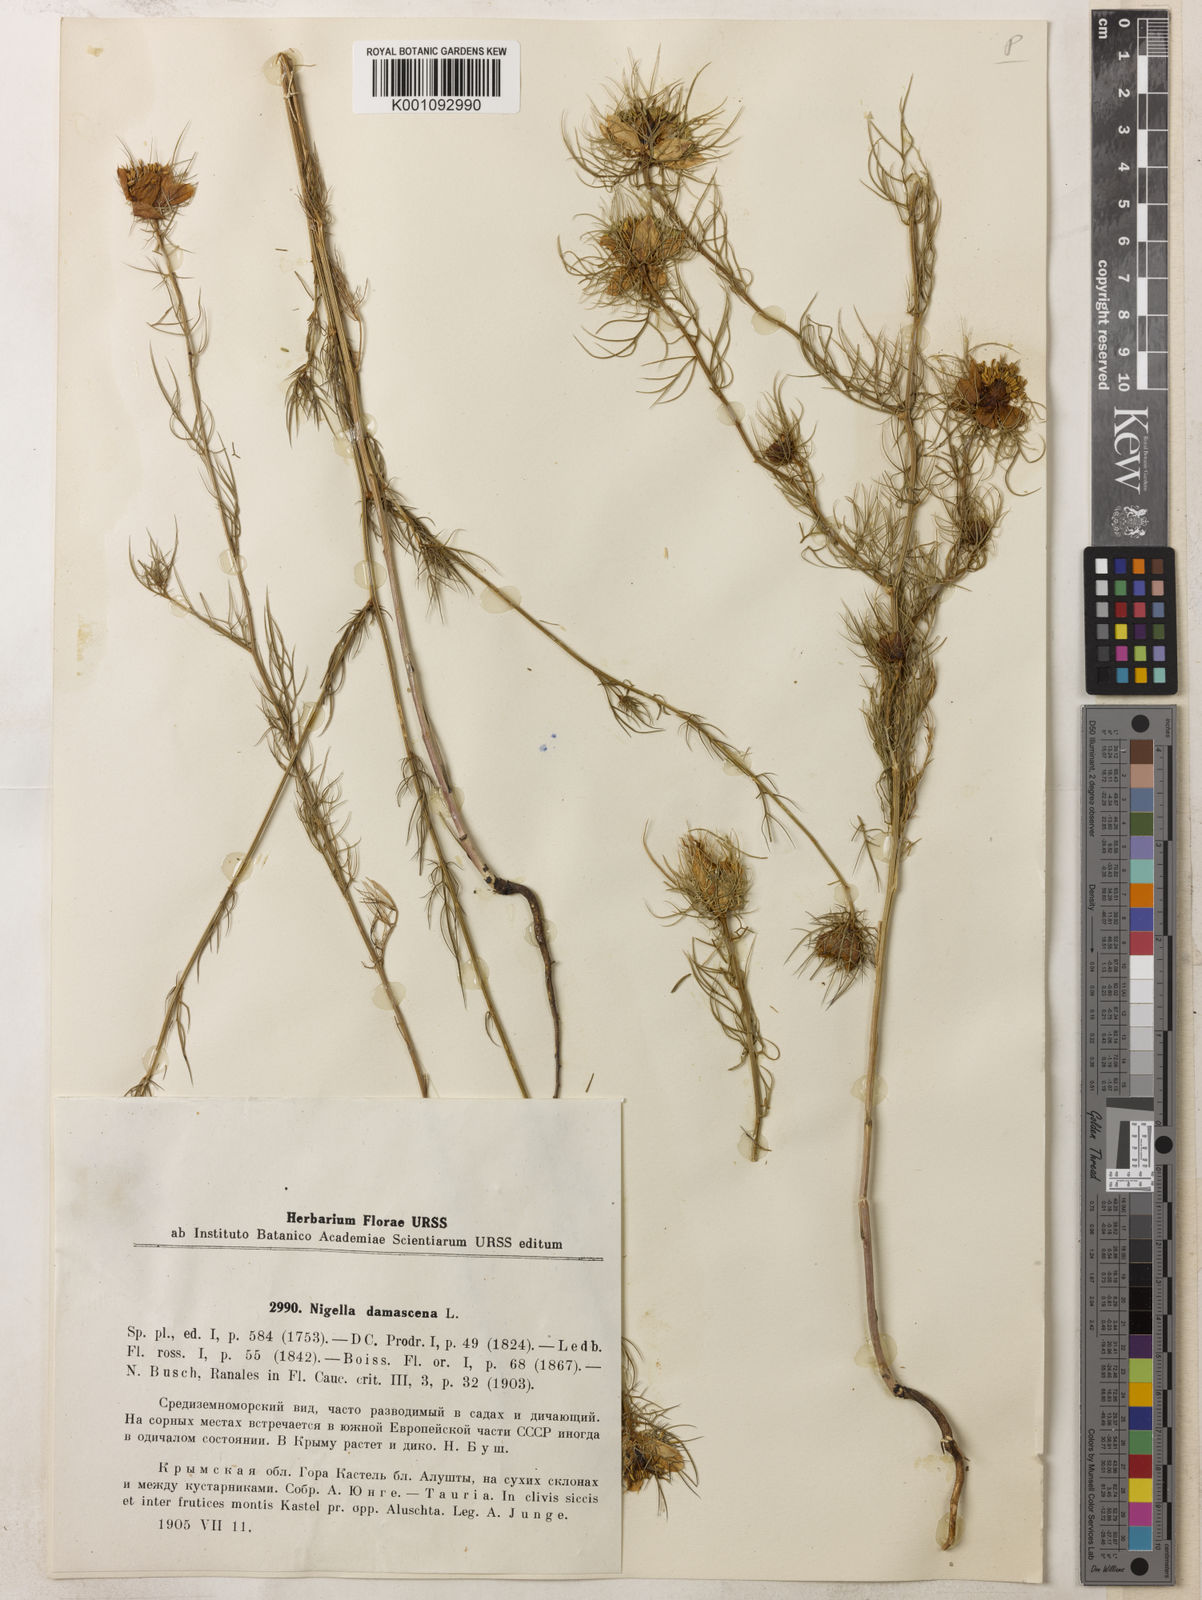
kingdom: Plantae
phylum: Tracheophyta
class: Magnoliopsida
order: Ranunculales
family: Ranunculaceae
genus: Nigella
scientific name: Nigella damascena
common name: Love-in-a-mist
